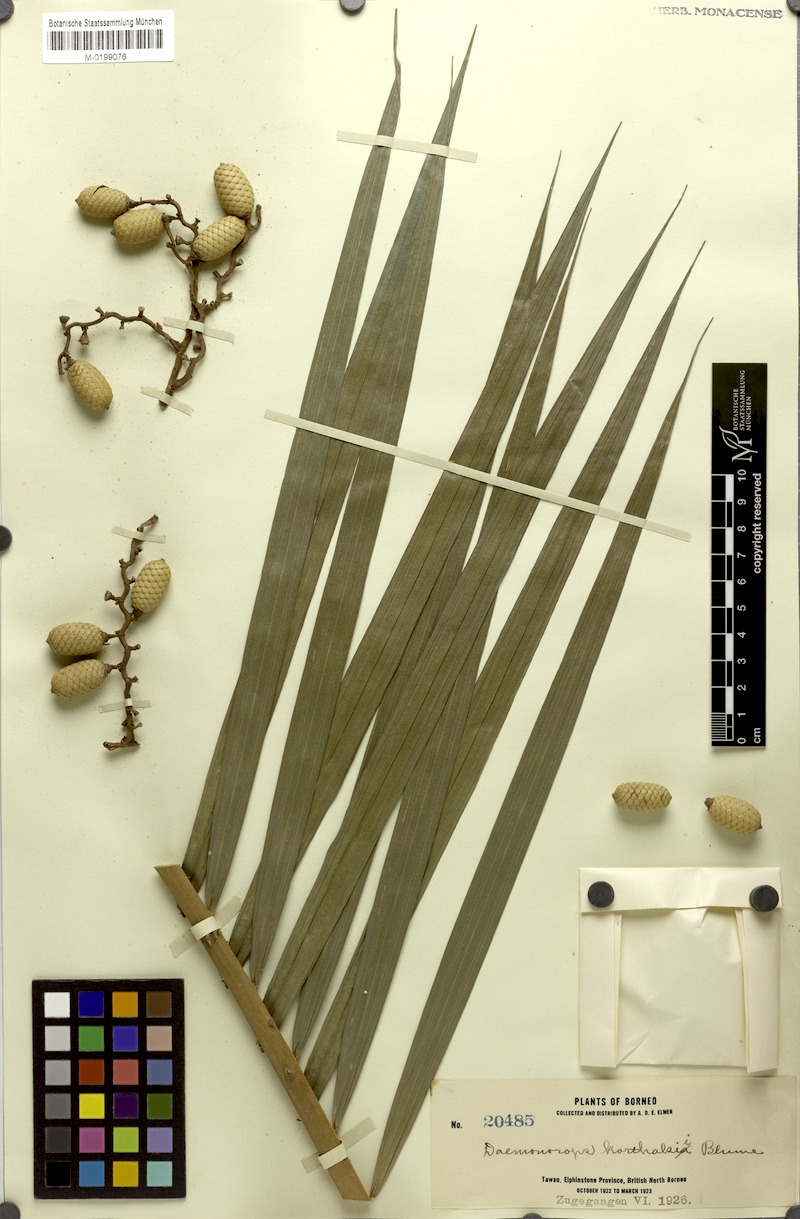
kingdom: Plantae
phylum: Tracheophyta
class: Liliopsida
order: Arecales
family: Arecaceae
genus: Calamus
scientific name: Calamus hirsutus
